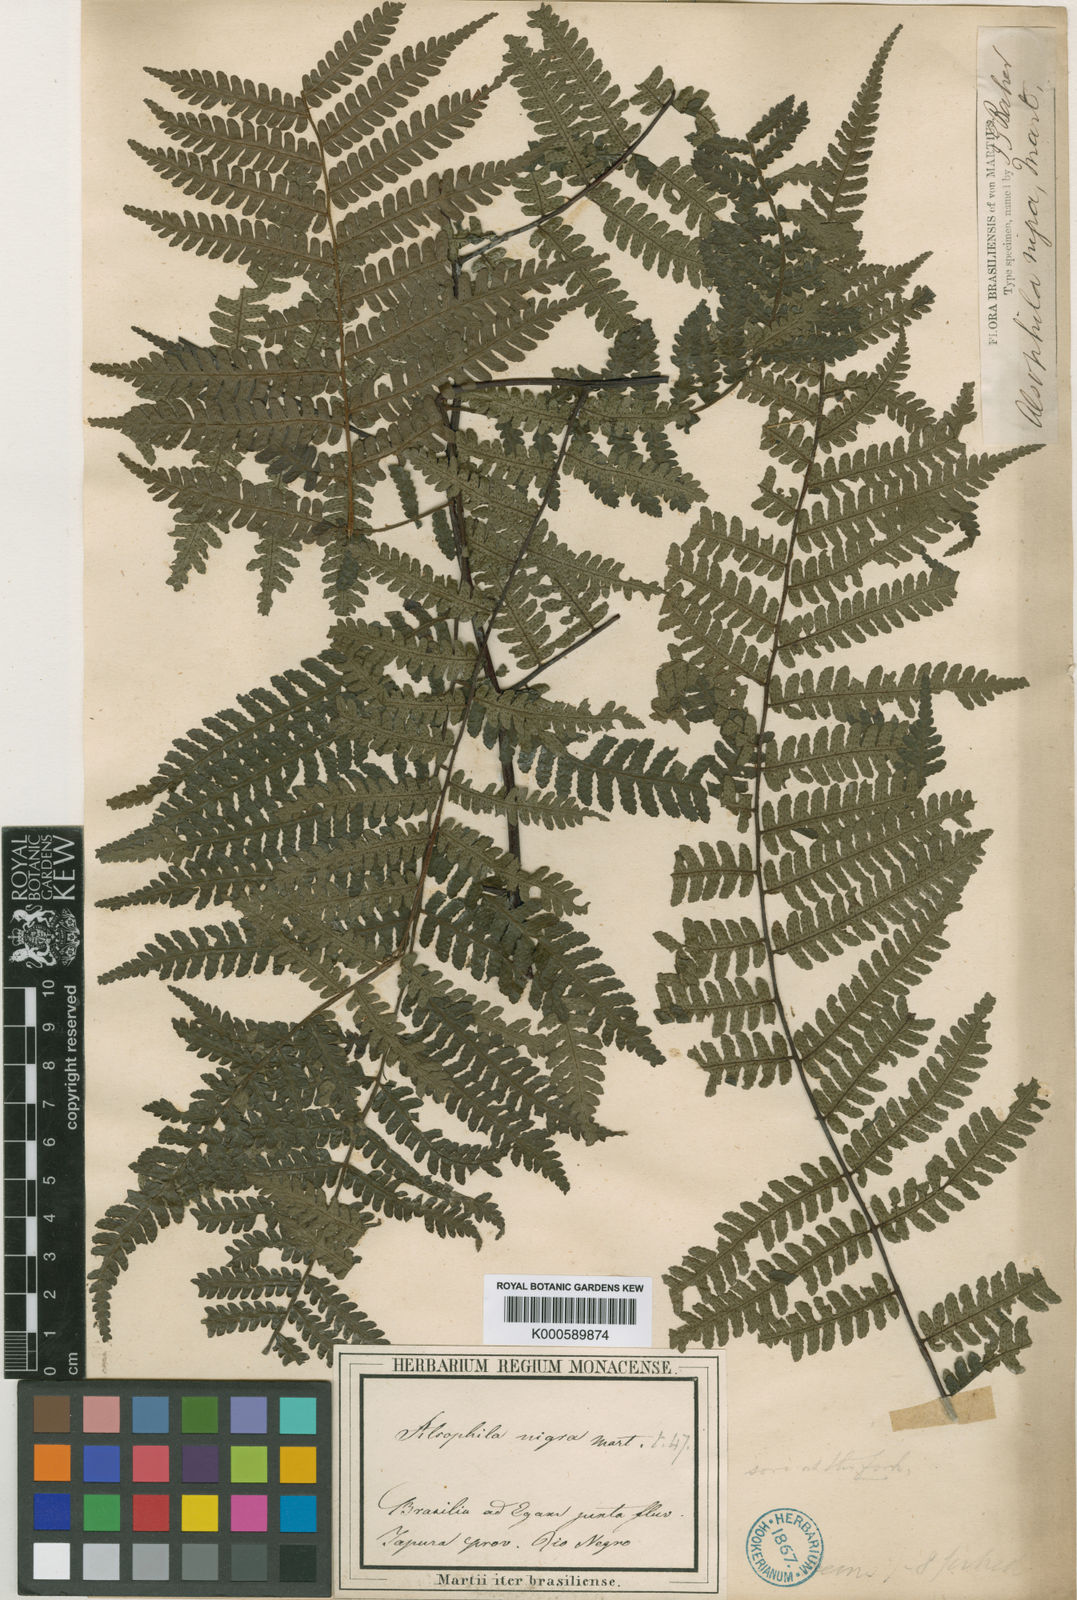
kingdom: Plantae
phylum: Tracheophyta
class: Polypodiopsida
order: Cyatheales
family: Cyatheaceae
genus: Cyathea
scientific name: Cyathea nigra
